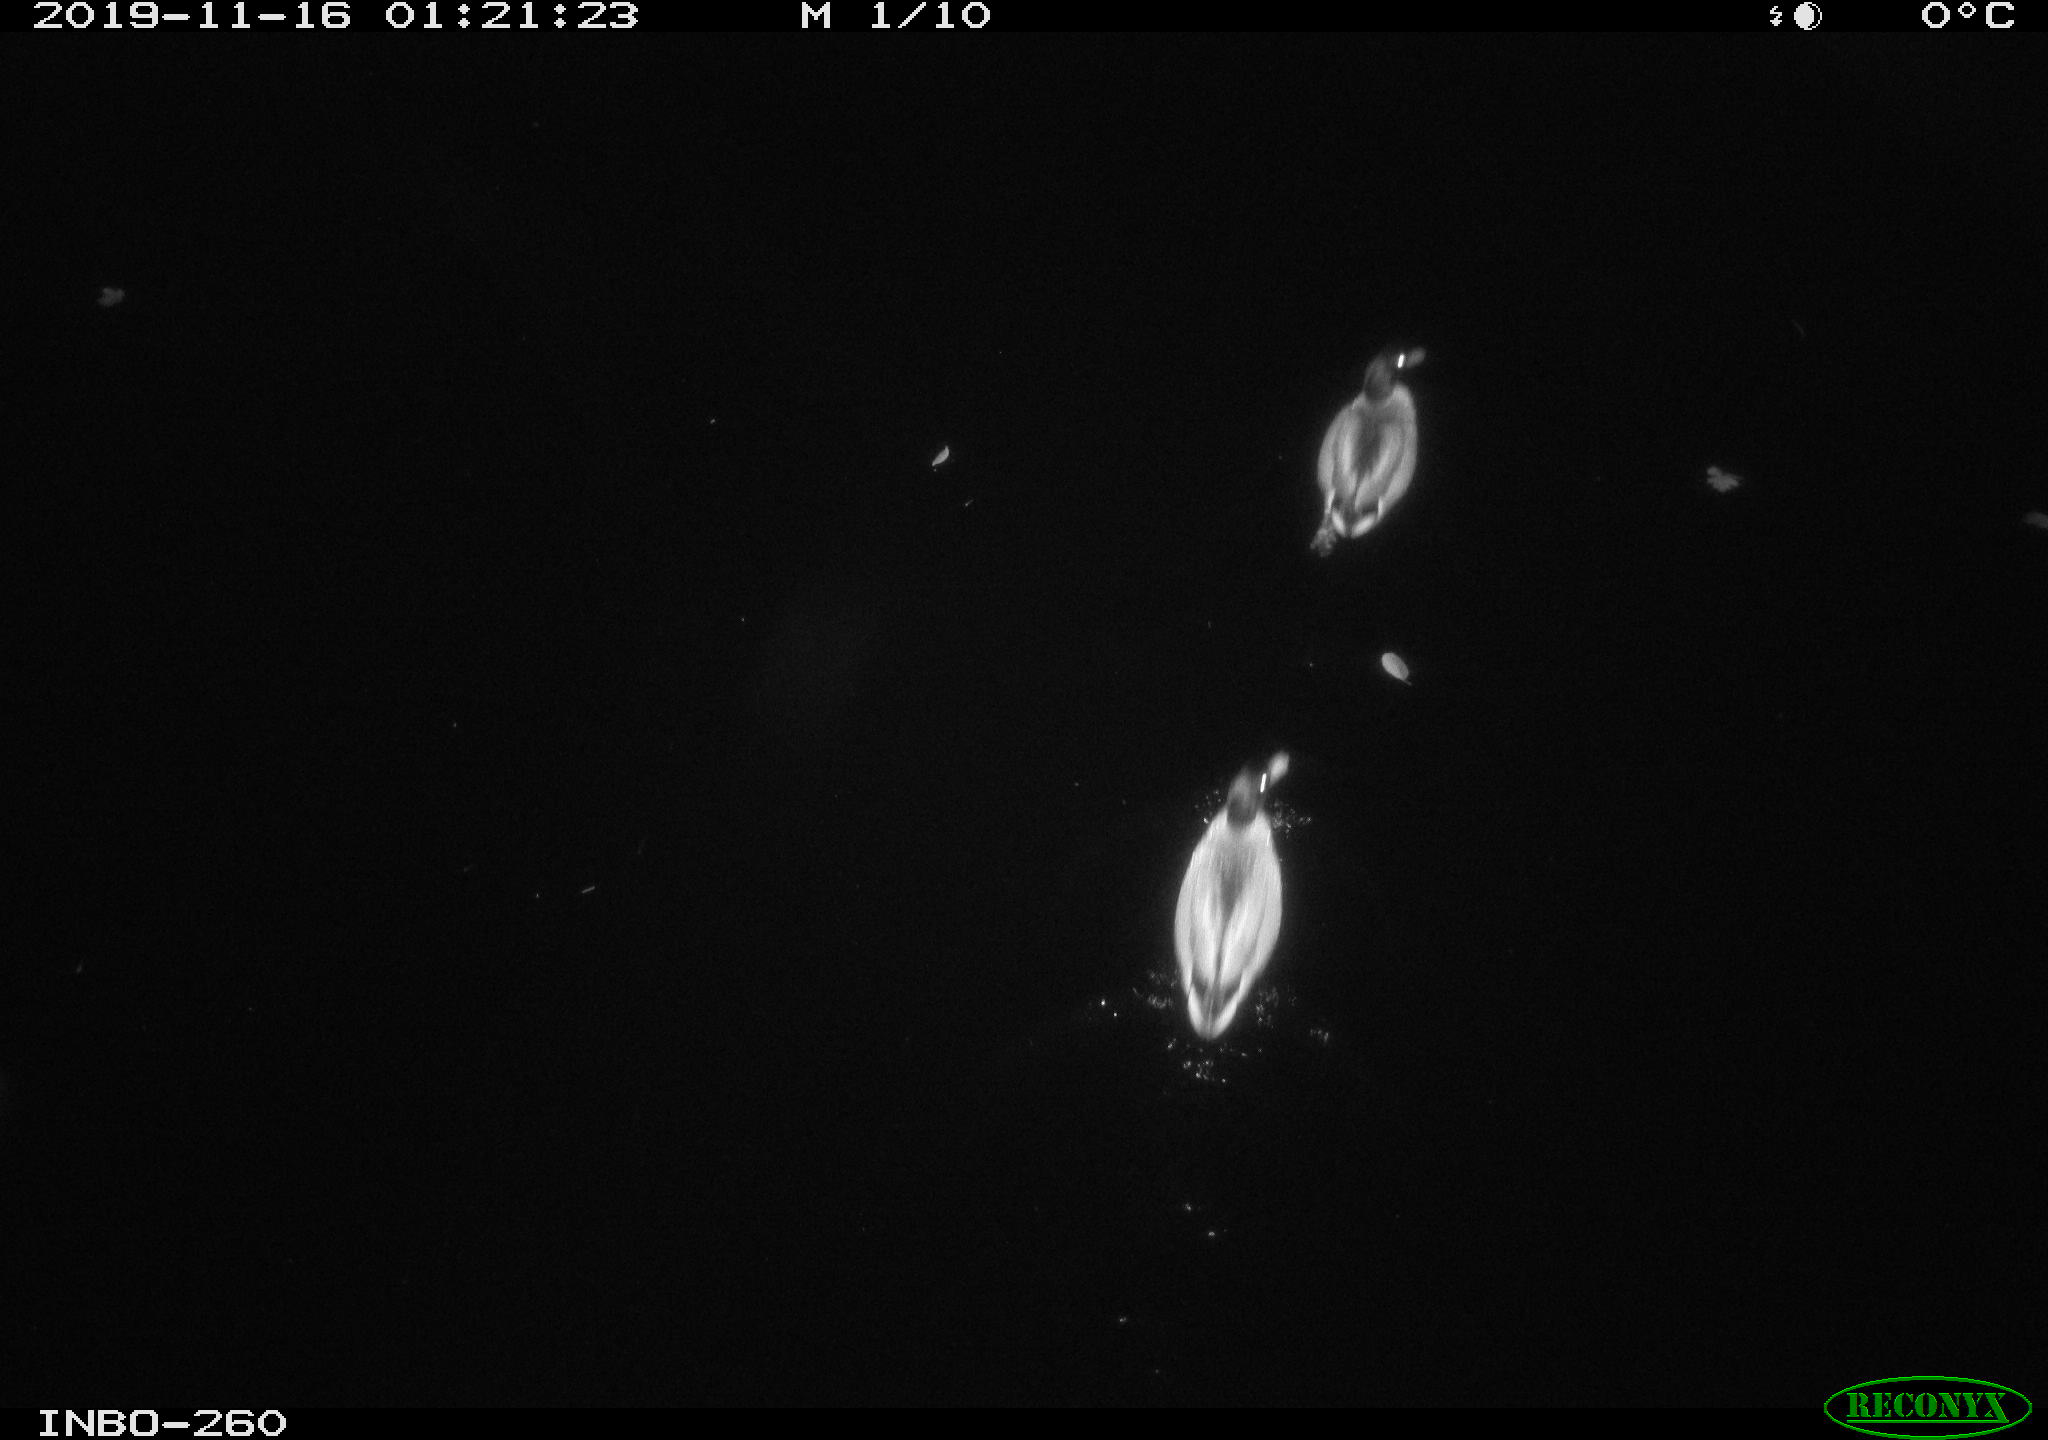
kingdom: Animalia
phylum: Chordata
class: Aves
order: Anseriformes
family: Anatidae
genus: Anas
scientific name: Anas platyrhynchos
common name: Mallard
